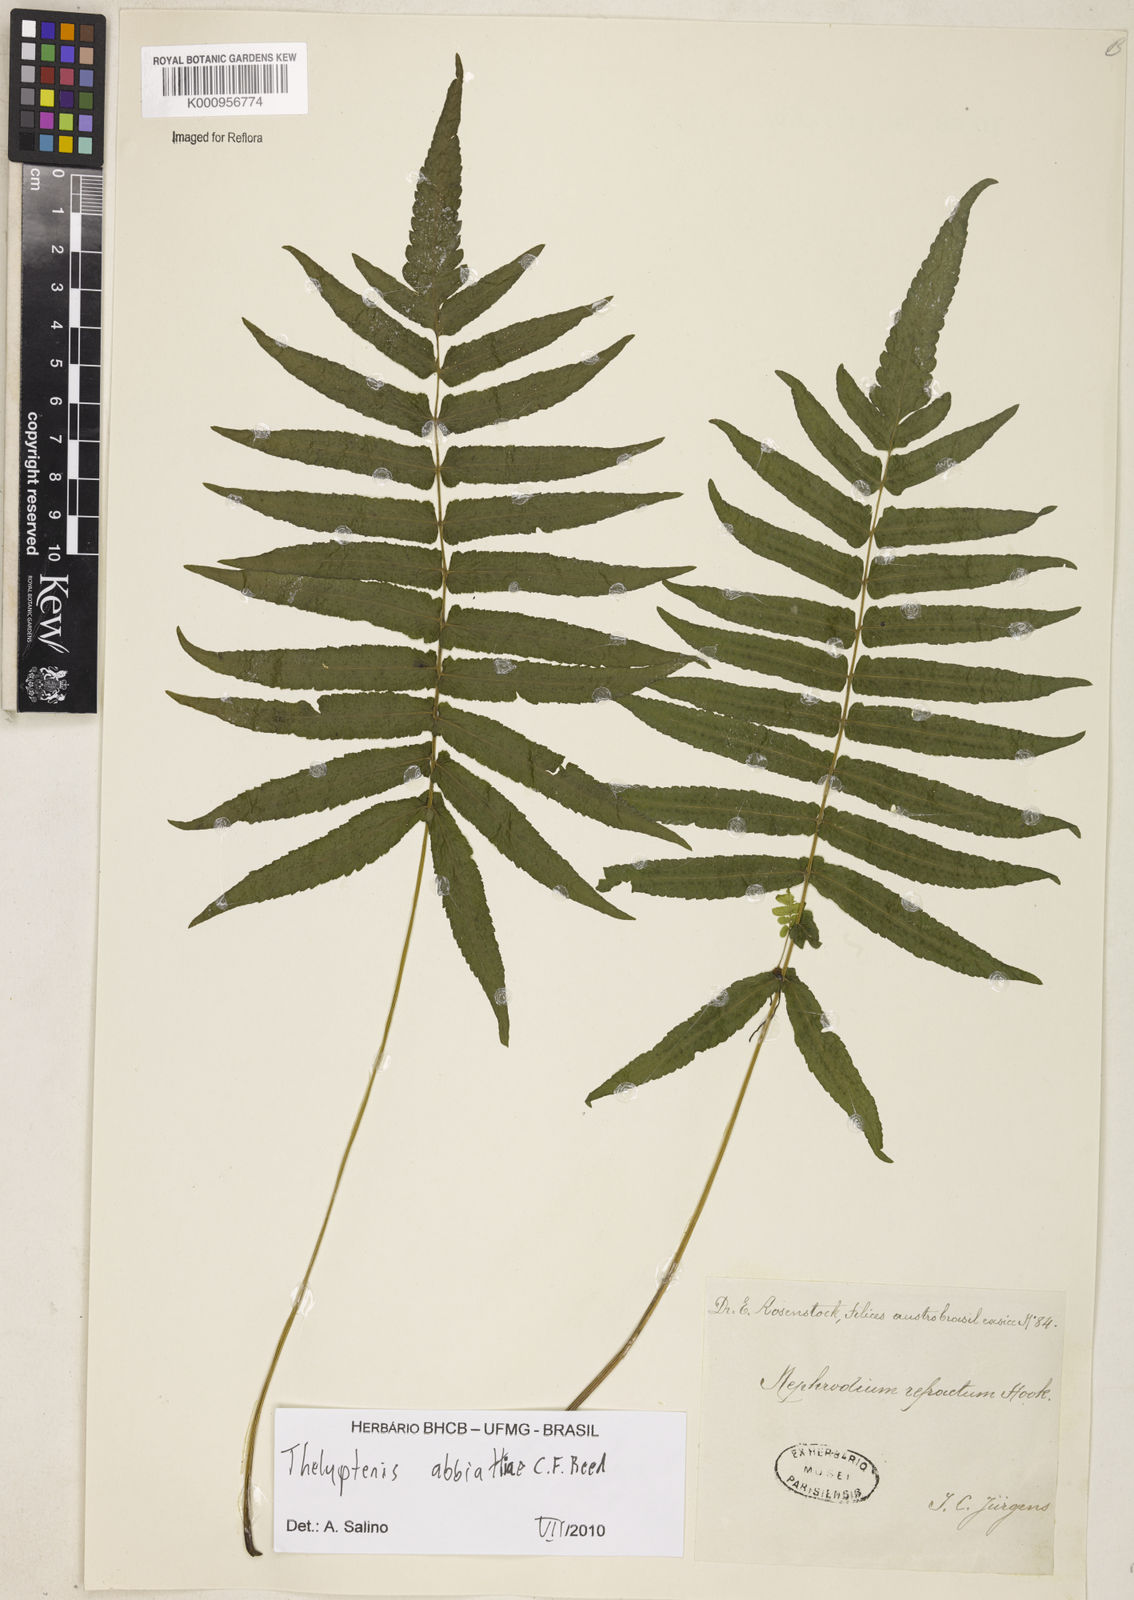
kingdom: Plantae
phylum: Tracheophyta
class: Polypodiopsida
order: Polypodiales
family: Thelypteridaceae
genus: Goniopteris
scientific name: Goniopteris
